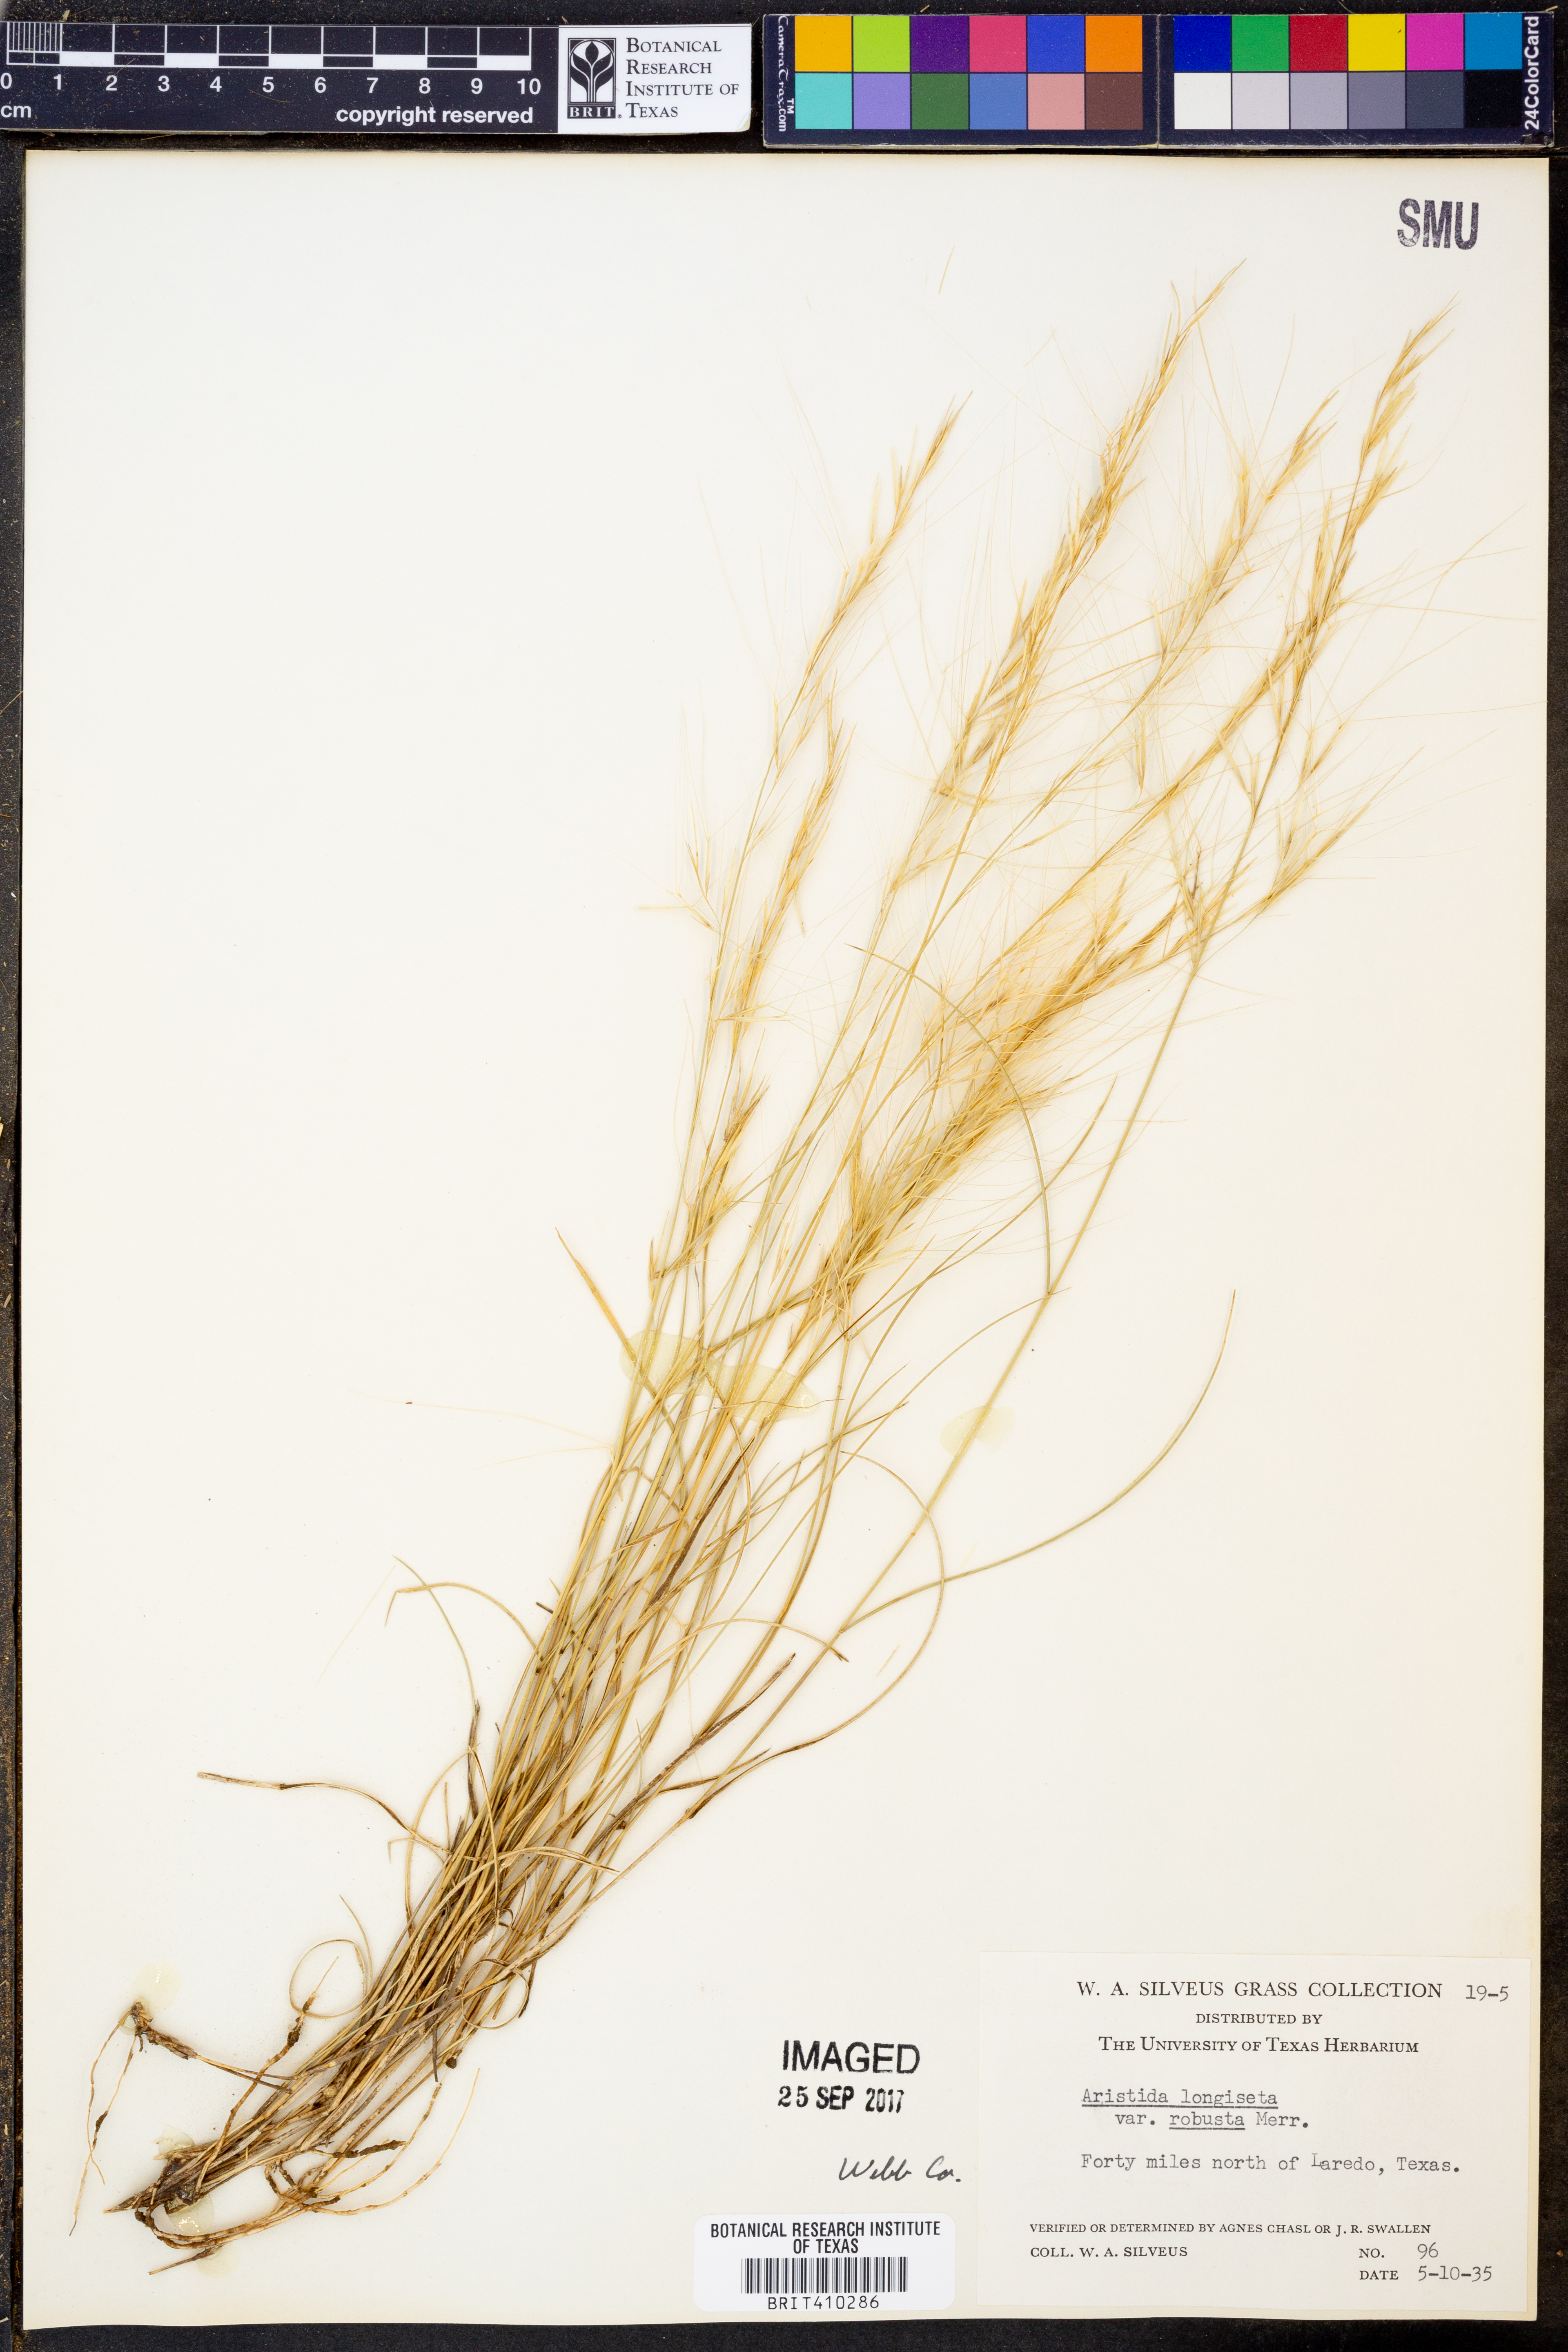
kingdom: Plantae
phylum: Tracheophyta
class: Liliopsida
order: Poales
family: Poaceae
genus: Aristida
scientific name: Aristida longiseta
